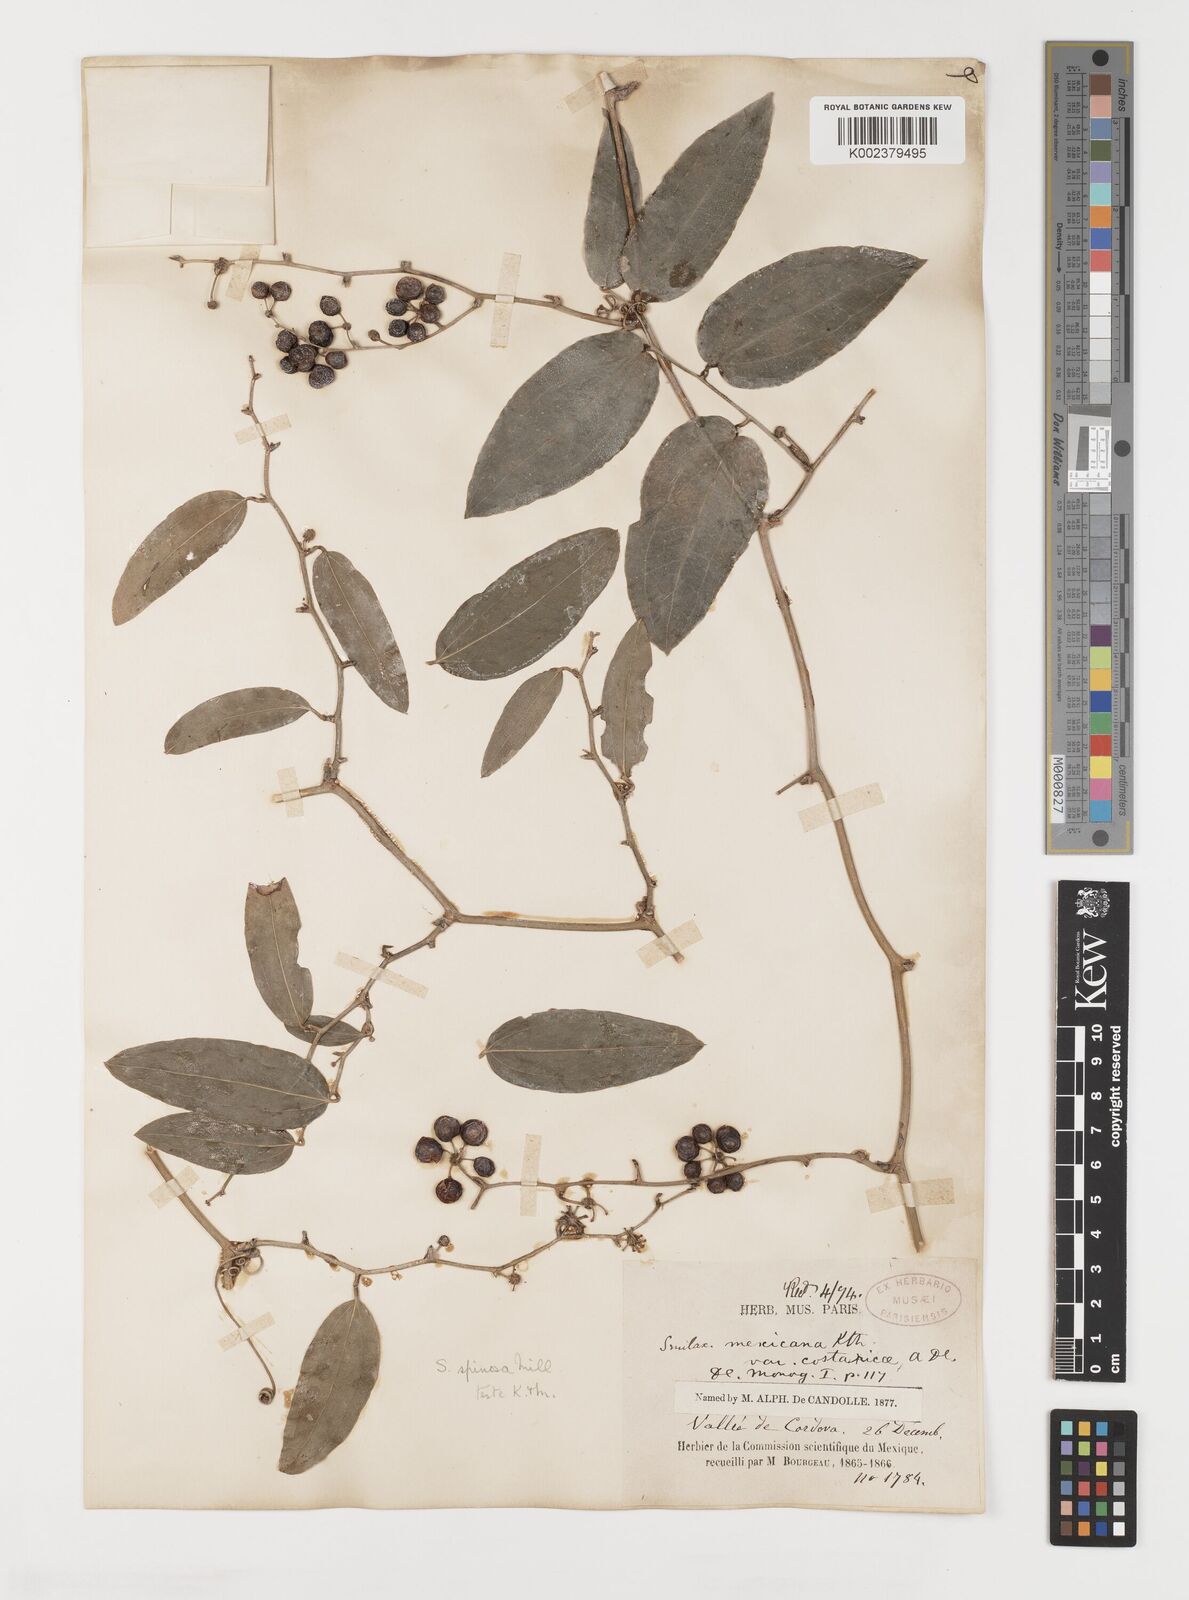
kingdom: Plantae
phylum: Tracheophyta
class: Liliopsida
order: Liliales
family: Smilacaceae
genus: Smilax
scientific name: Smilax spinosa
